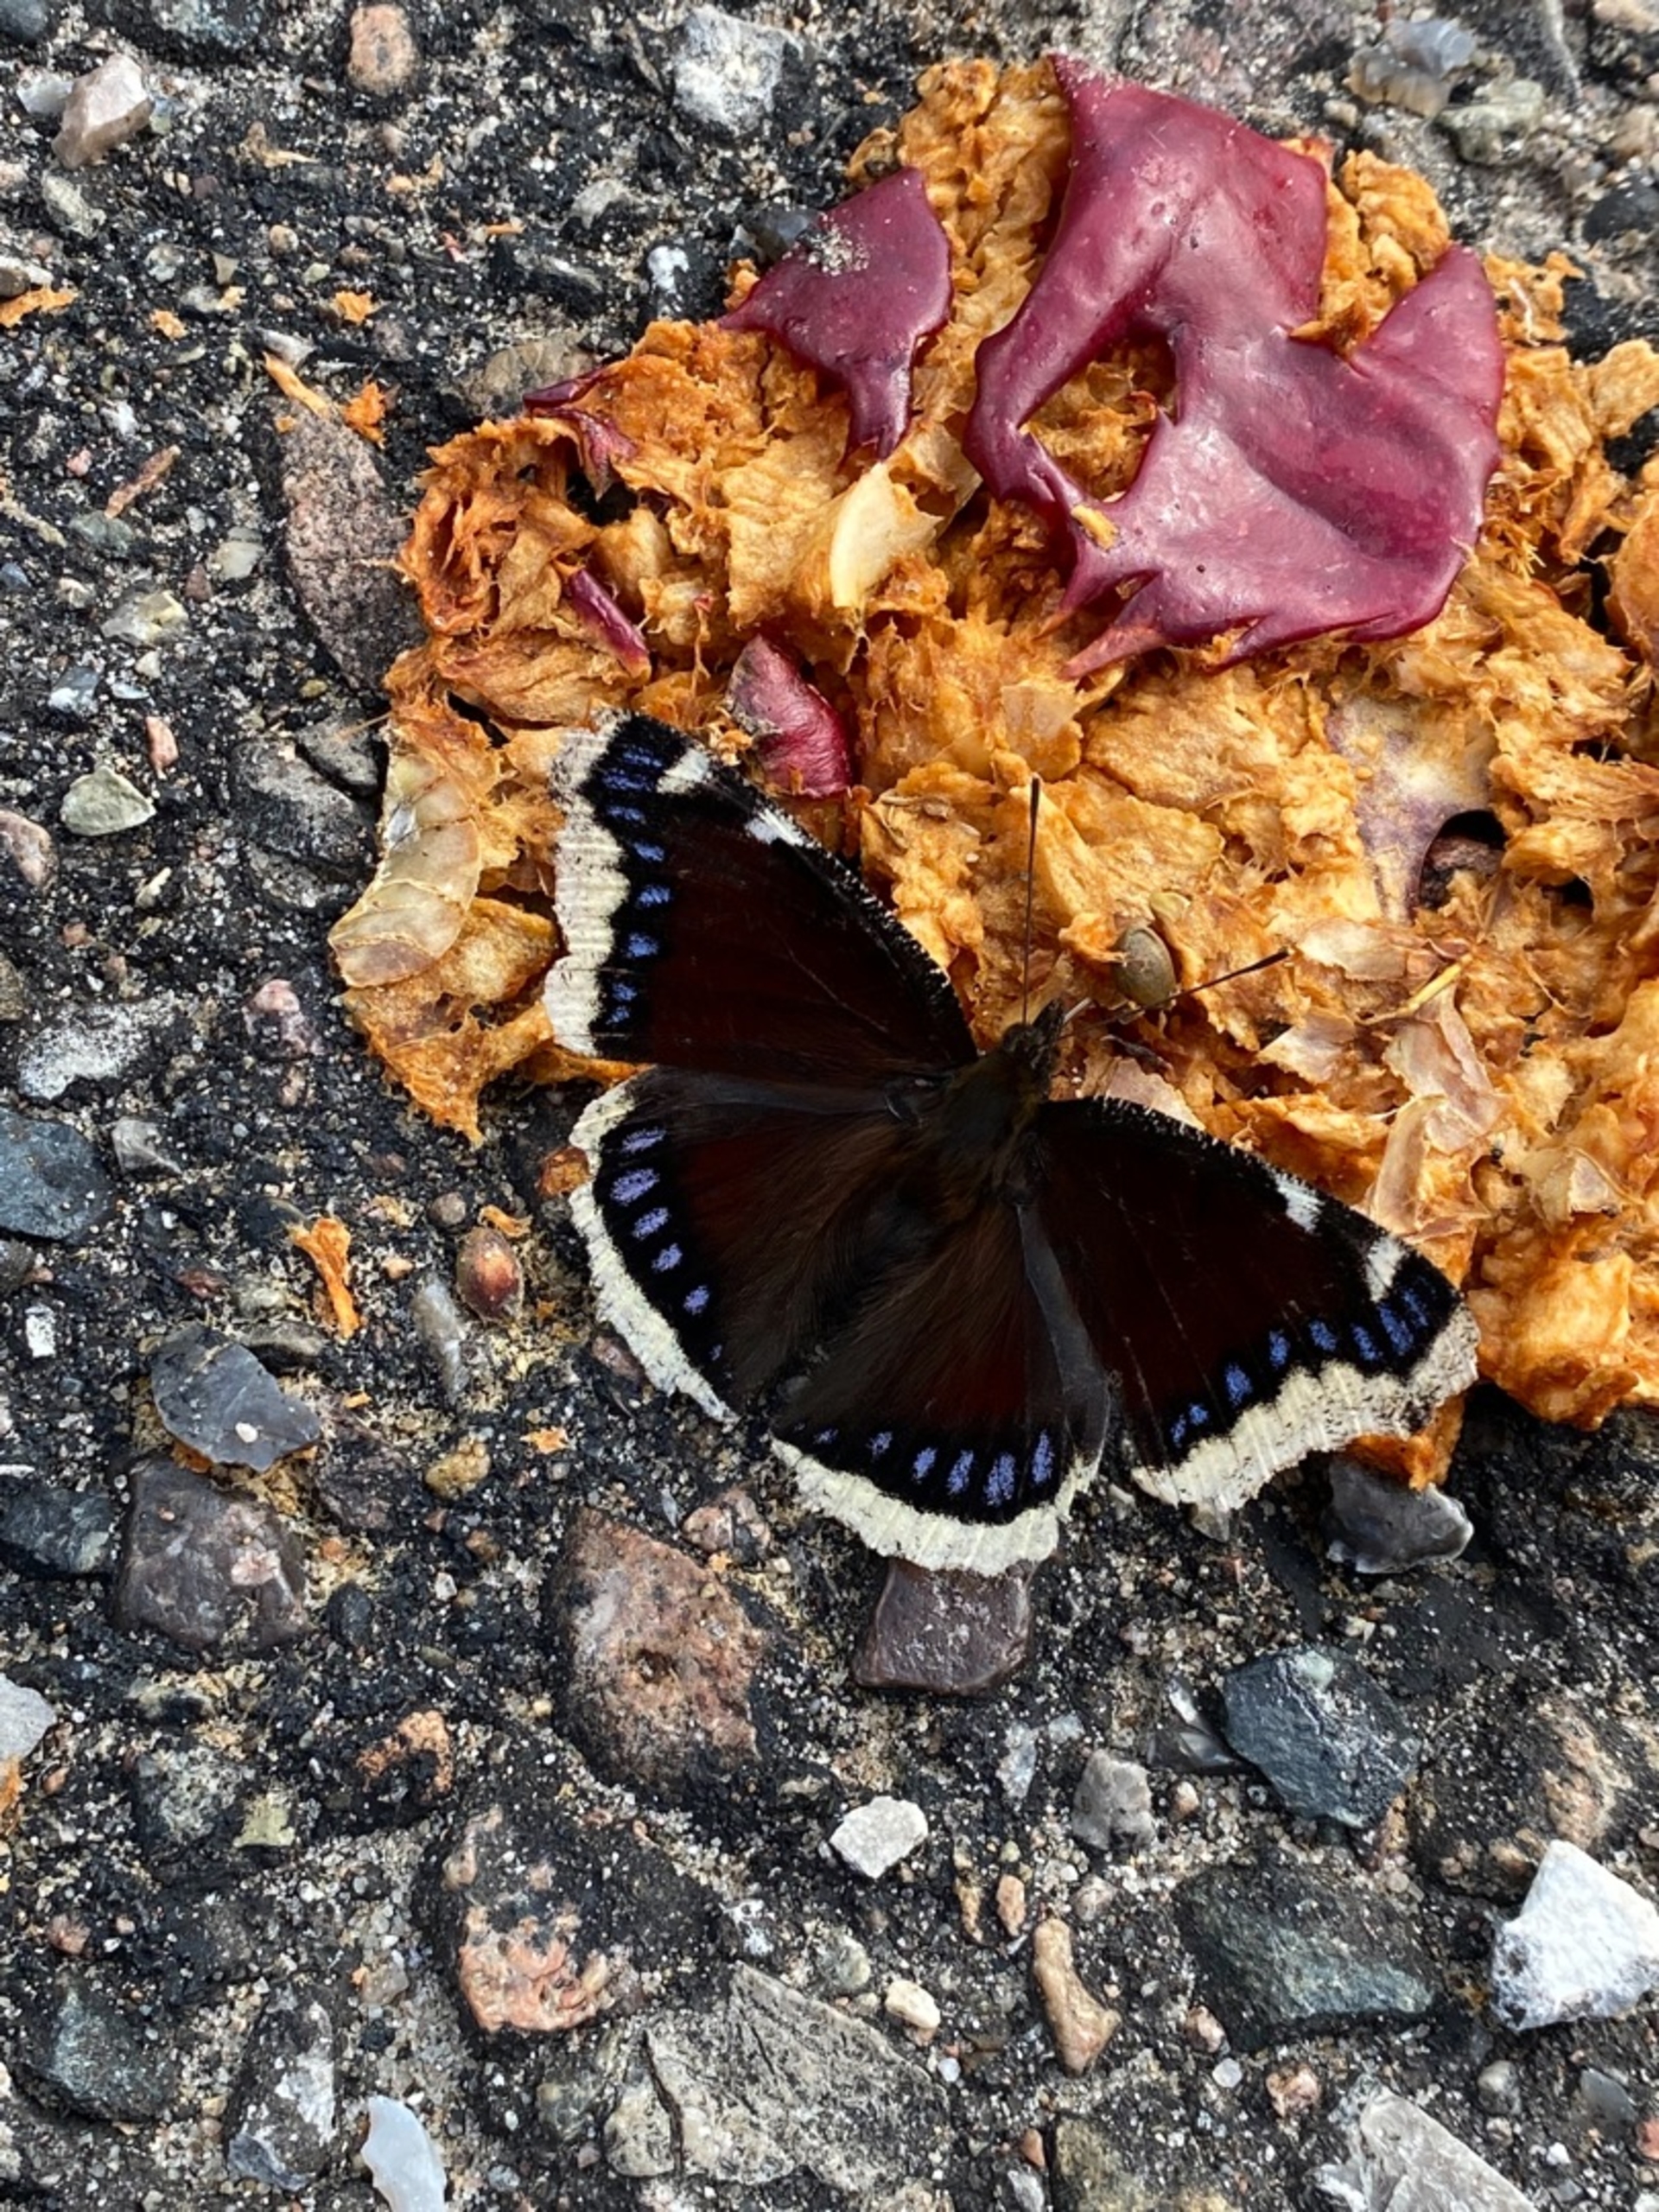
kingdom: Animalia
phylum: Arthropoda
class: Insecta
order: Lepidoptera
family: Nymphalidae
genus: Nymphalis
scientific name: Nymphalis antiopa
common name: Sørgekåbe
